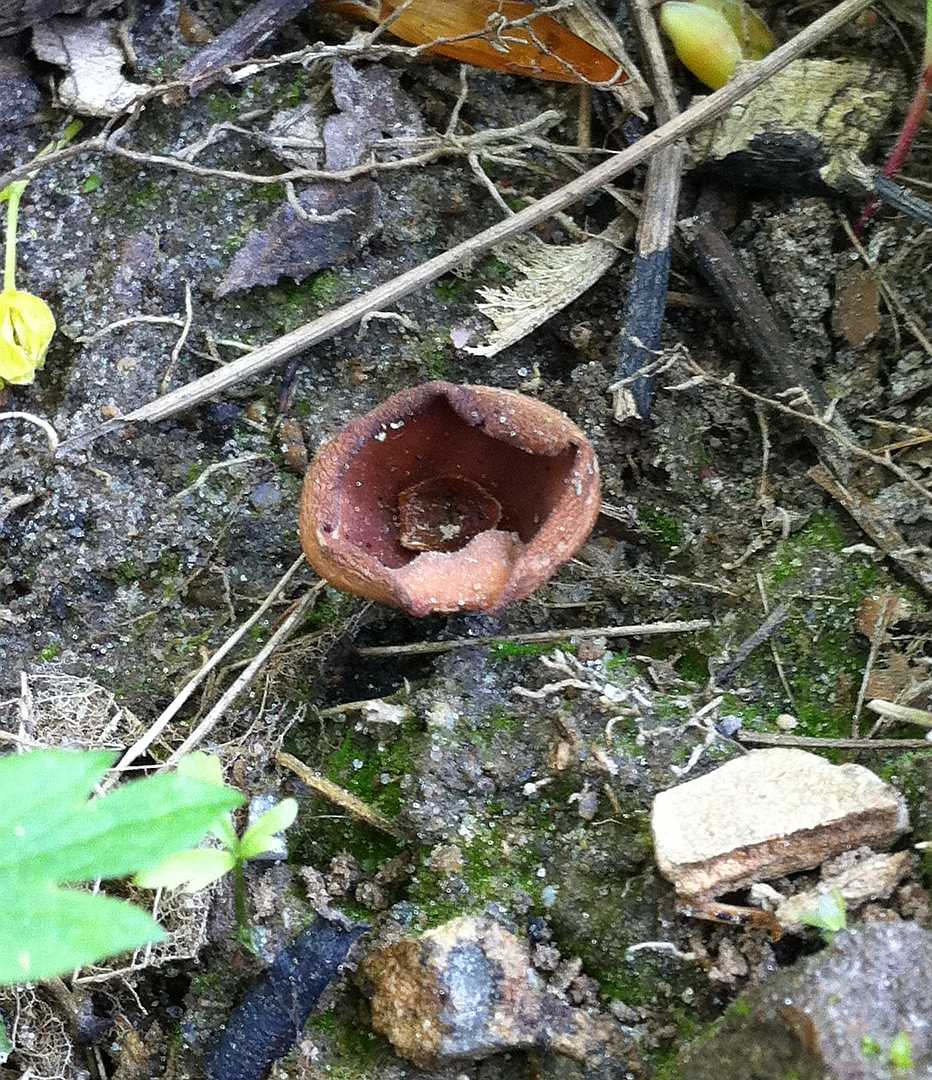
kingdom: Fungi
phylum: Ascomycota
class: Leotiomycetes
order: Helotiales
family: Sclerotiniaceae
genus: Dumontinia
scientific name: Dumontinia tuberosa
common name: anemone-knoldskive
